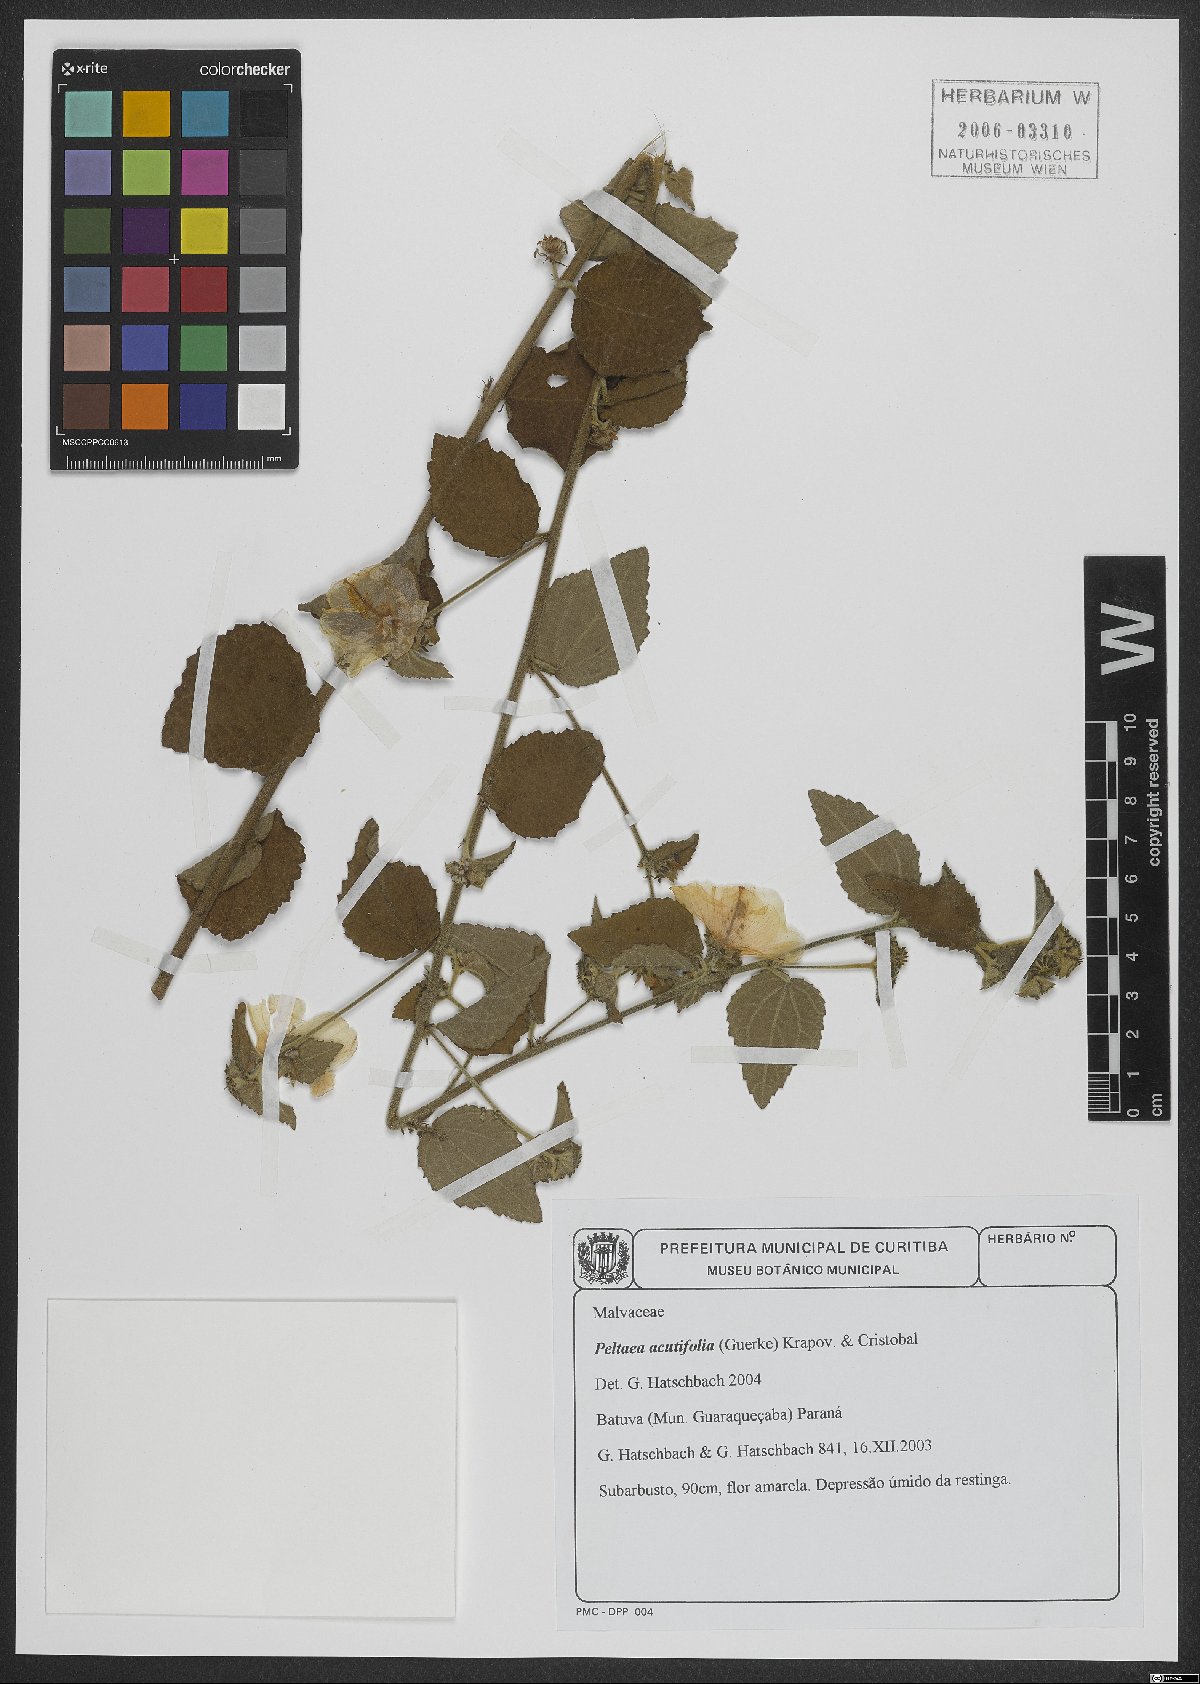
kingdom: Plantae
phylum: Tracheophyta
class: Magnoliopsida
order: Malvales
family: Malvaceae
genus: Peltaea
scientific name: Peltaea obsita
